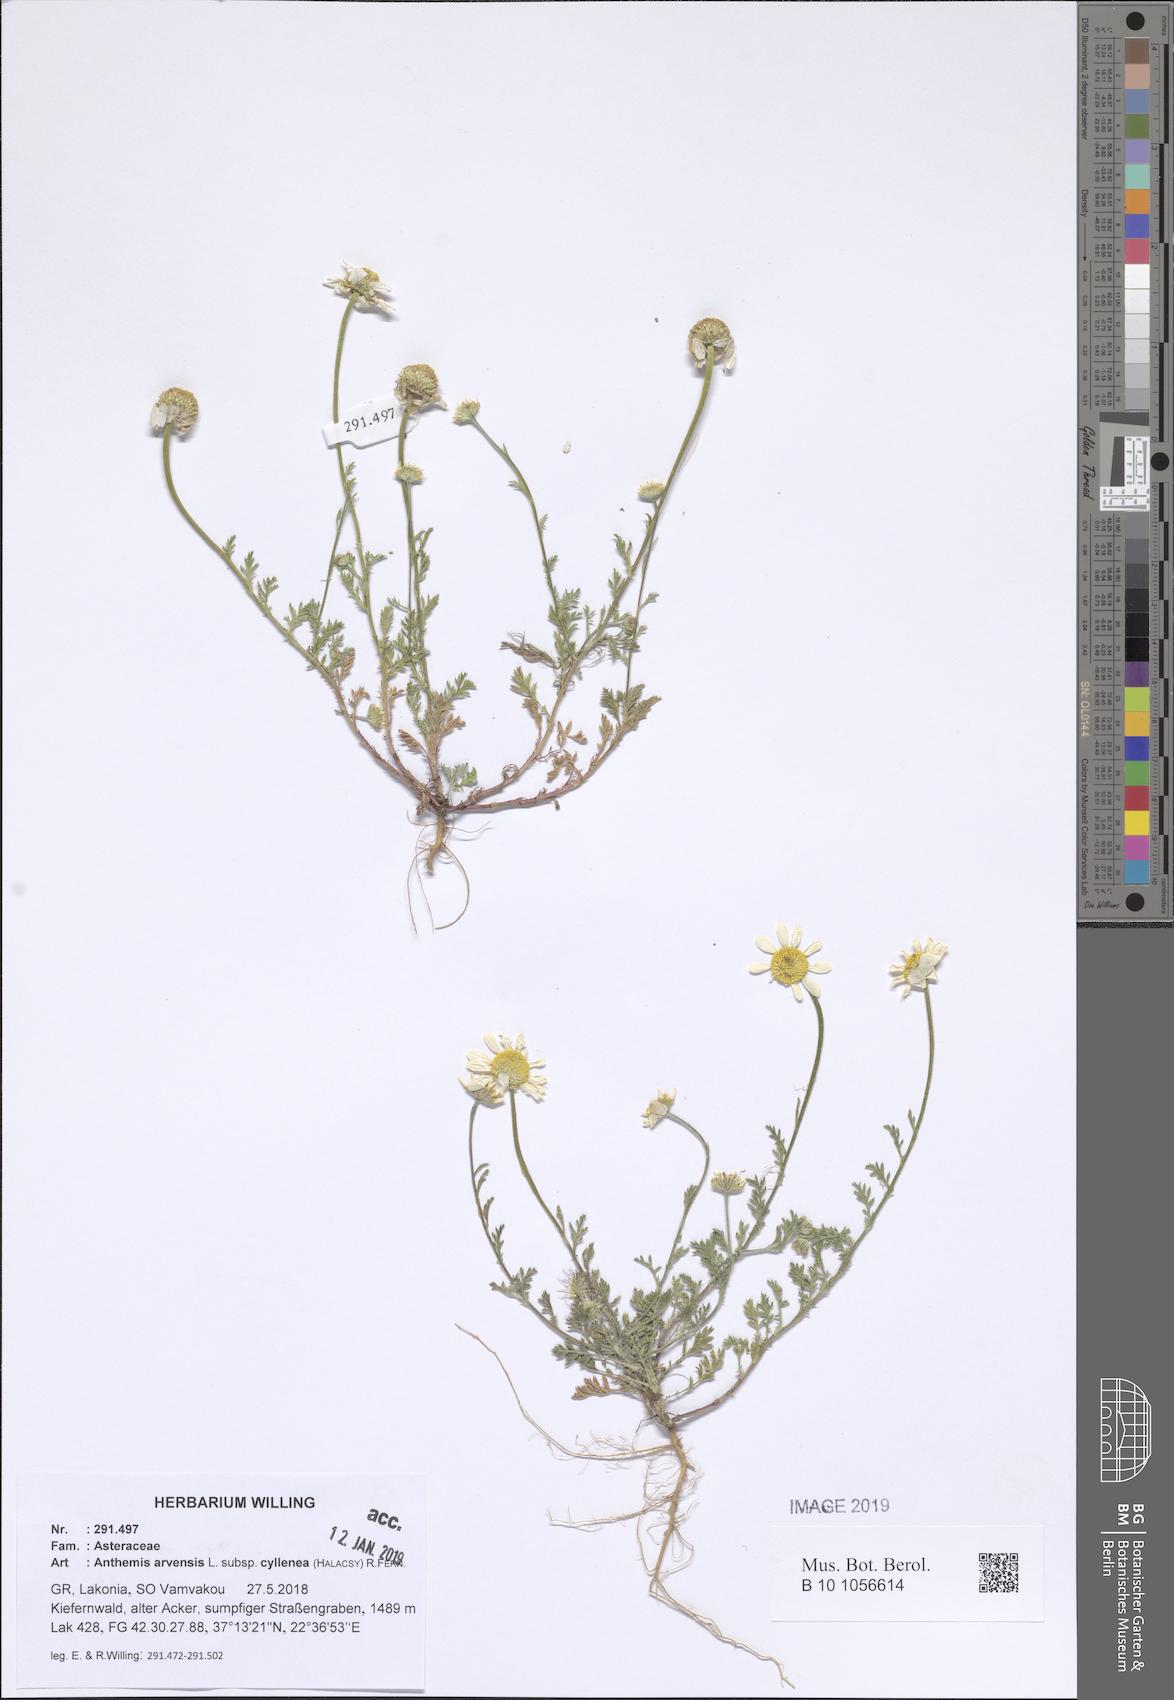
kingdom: Plantae
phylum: Tracheophyta
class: Magnoliopsida
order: Asterales
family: Asteraceae
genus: Anthemis
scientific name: Anthemis arvensis
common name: Corn chamomile
